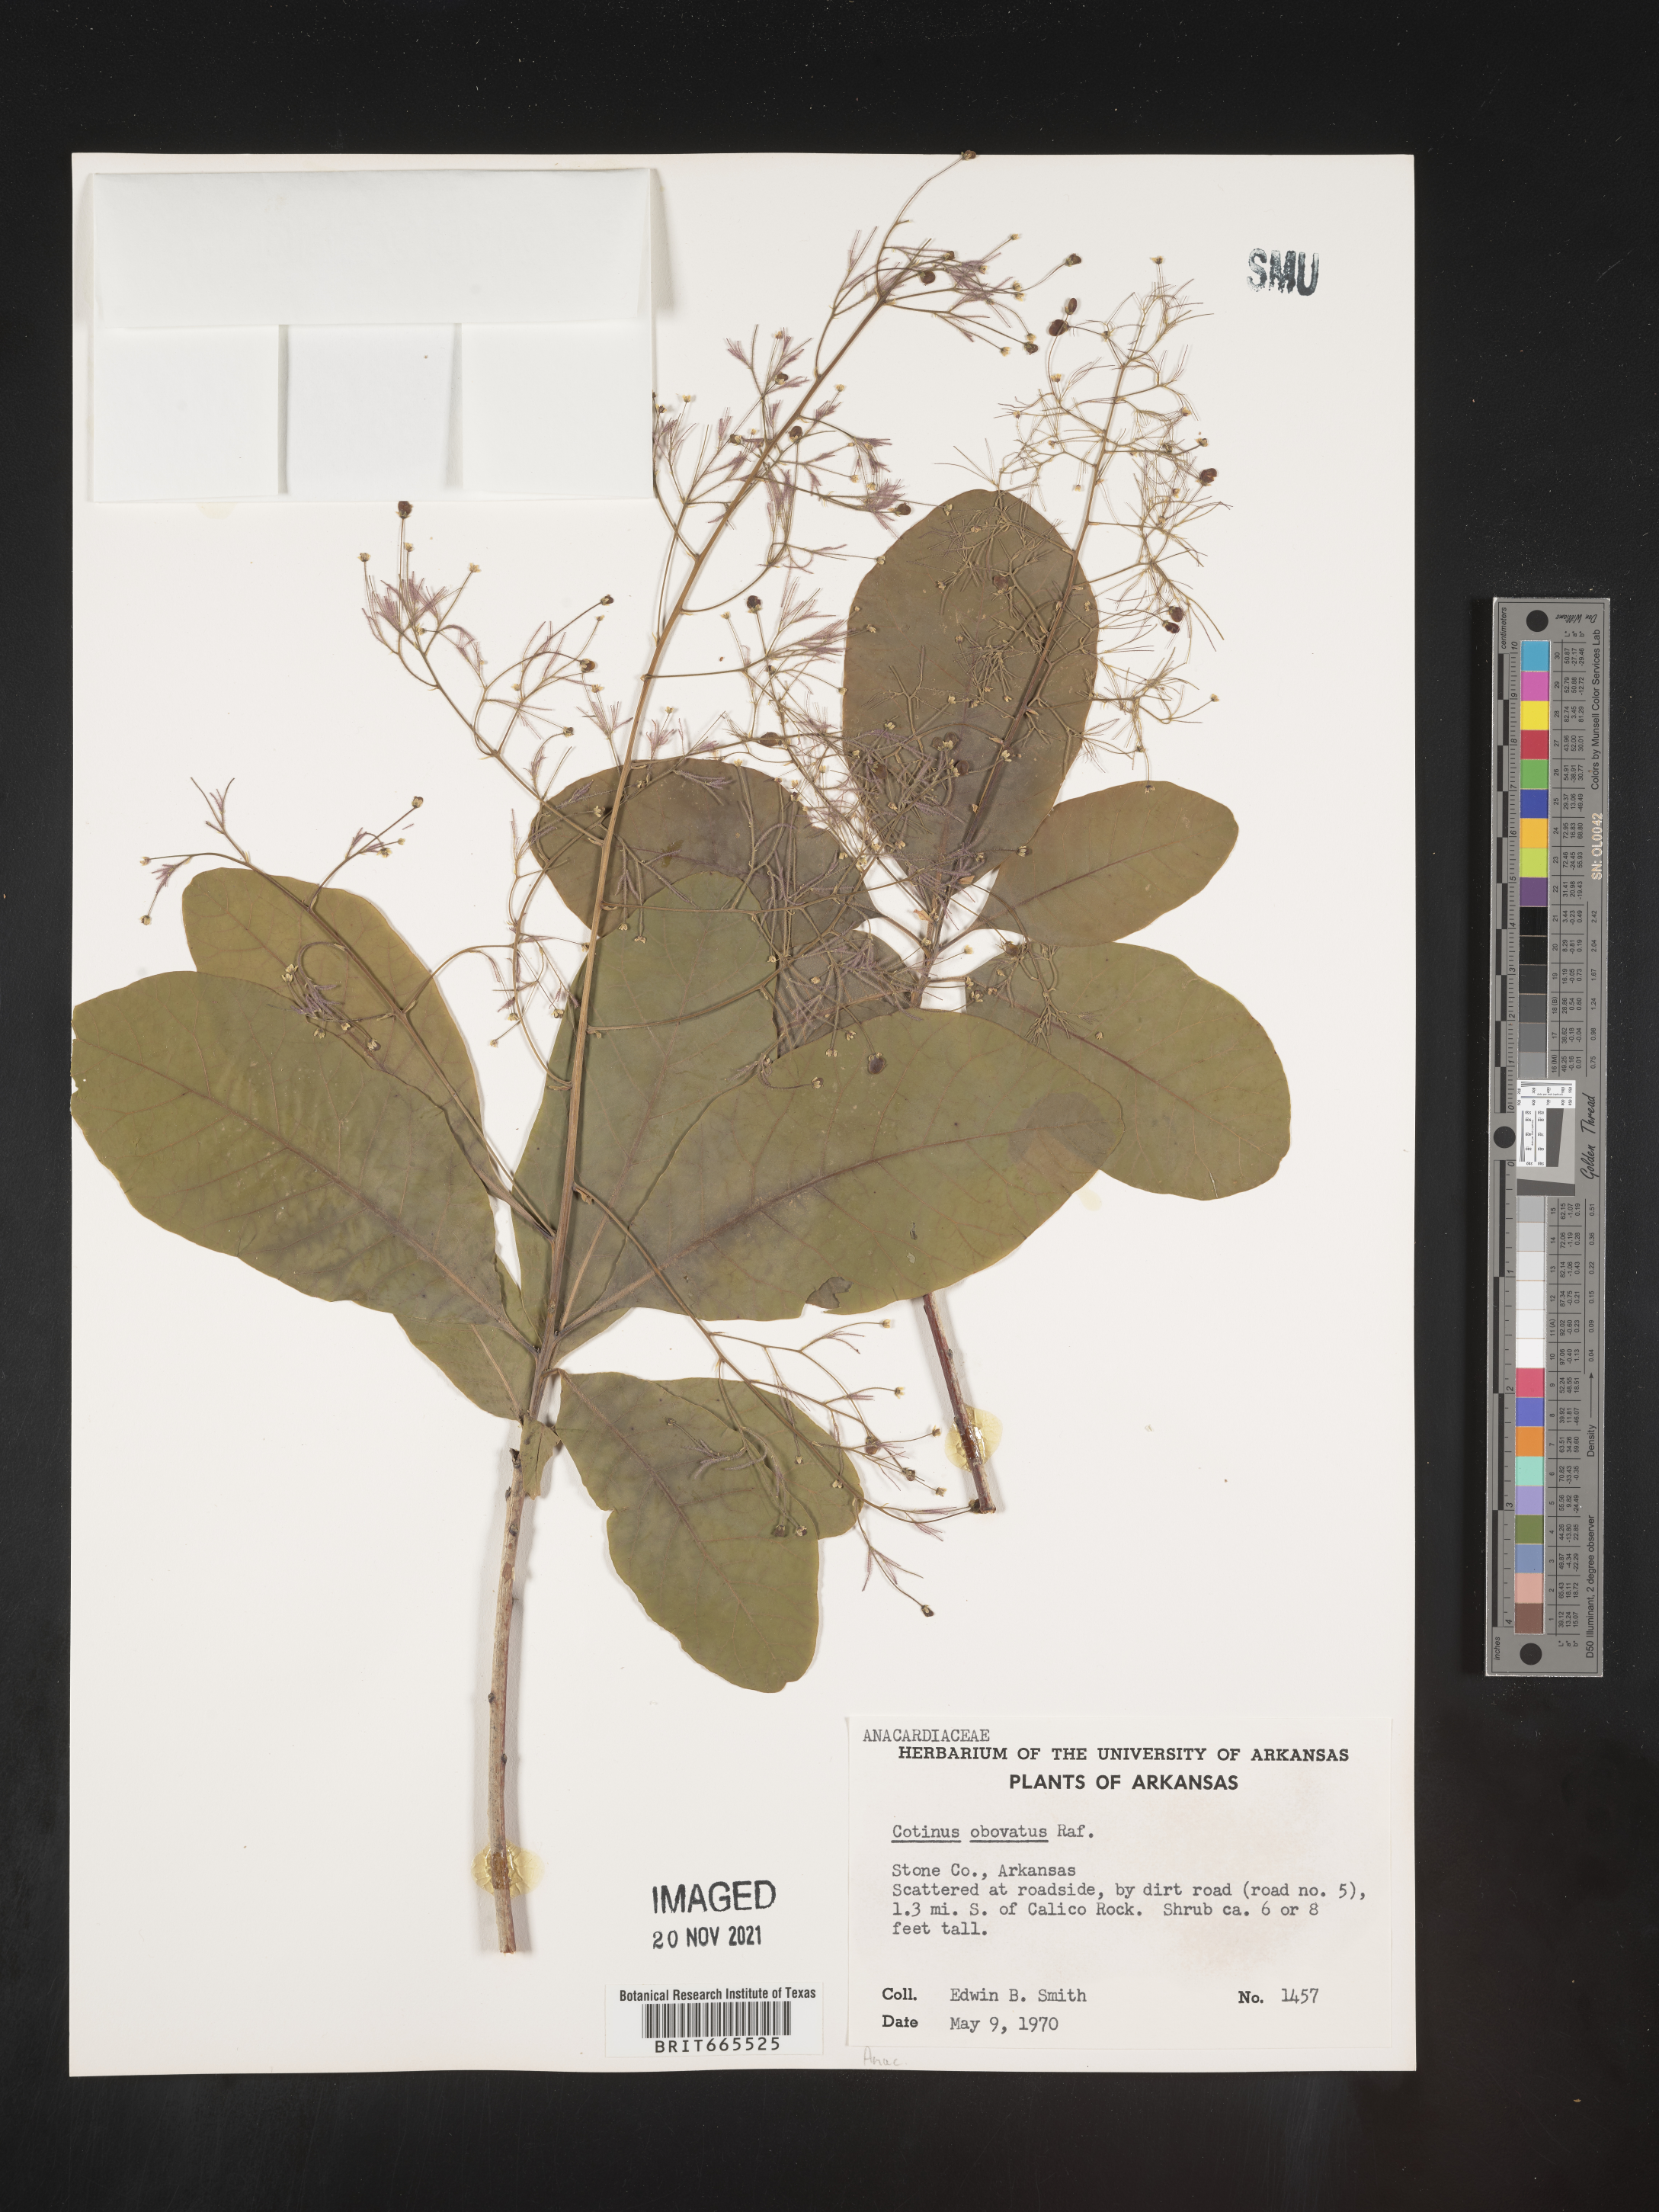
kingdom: Plantae
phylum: Tracheophyta
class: Magnoliopsida
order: Sapindales
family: Anacardiaceae
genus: Cotinus
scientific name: Cotinus obovatus
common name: Chittamwood
